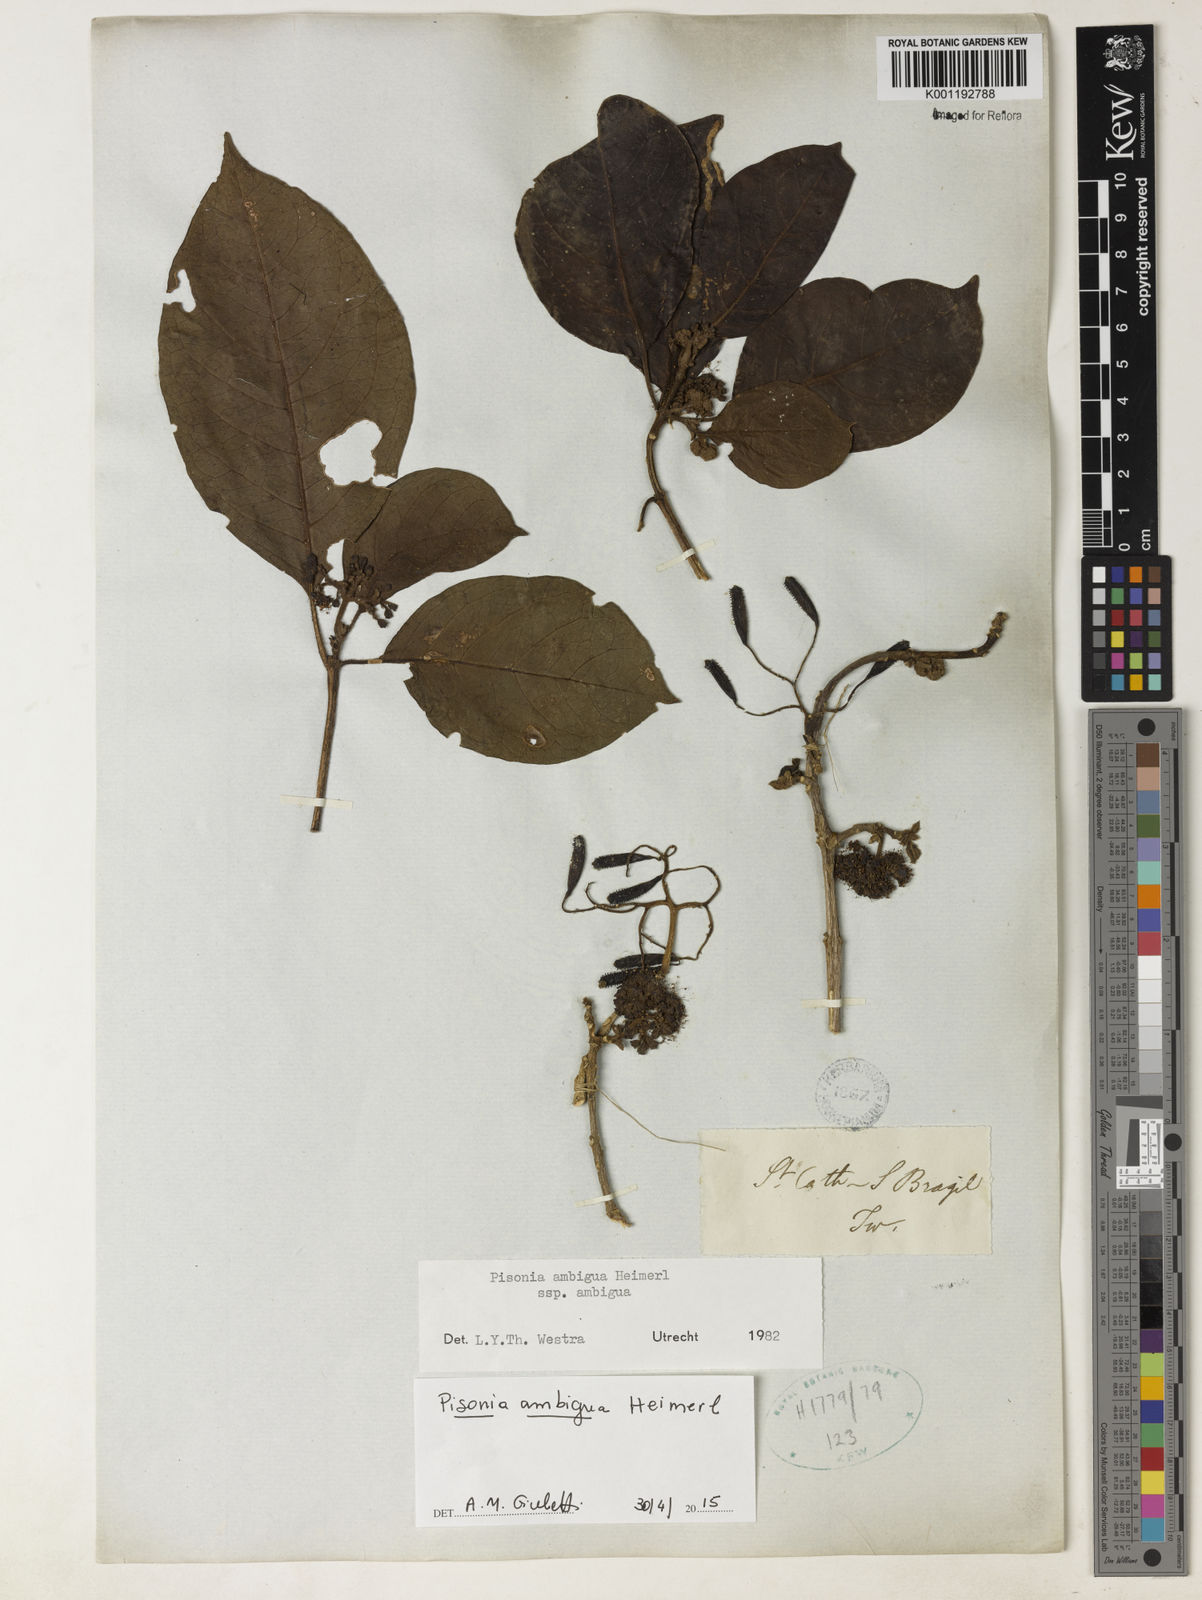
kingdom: Plantae
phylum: Tracheophyta
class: Magnoliopsida
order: Caryophyllales
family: Nyctaginaceae
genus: Pisonia
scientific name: Pisonia ambigua
